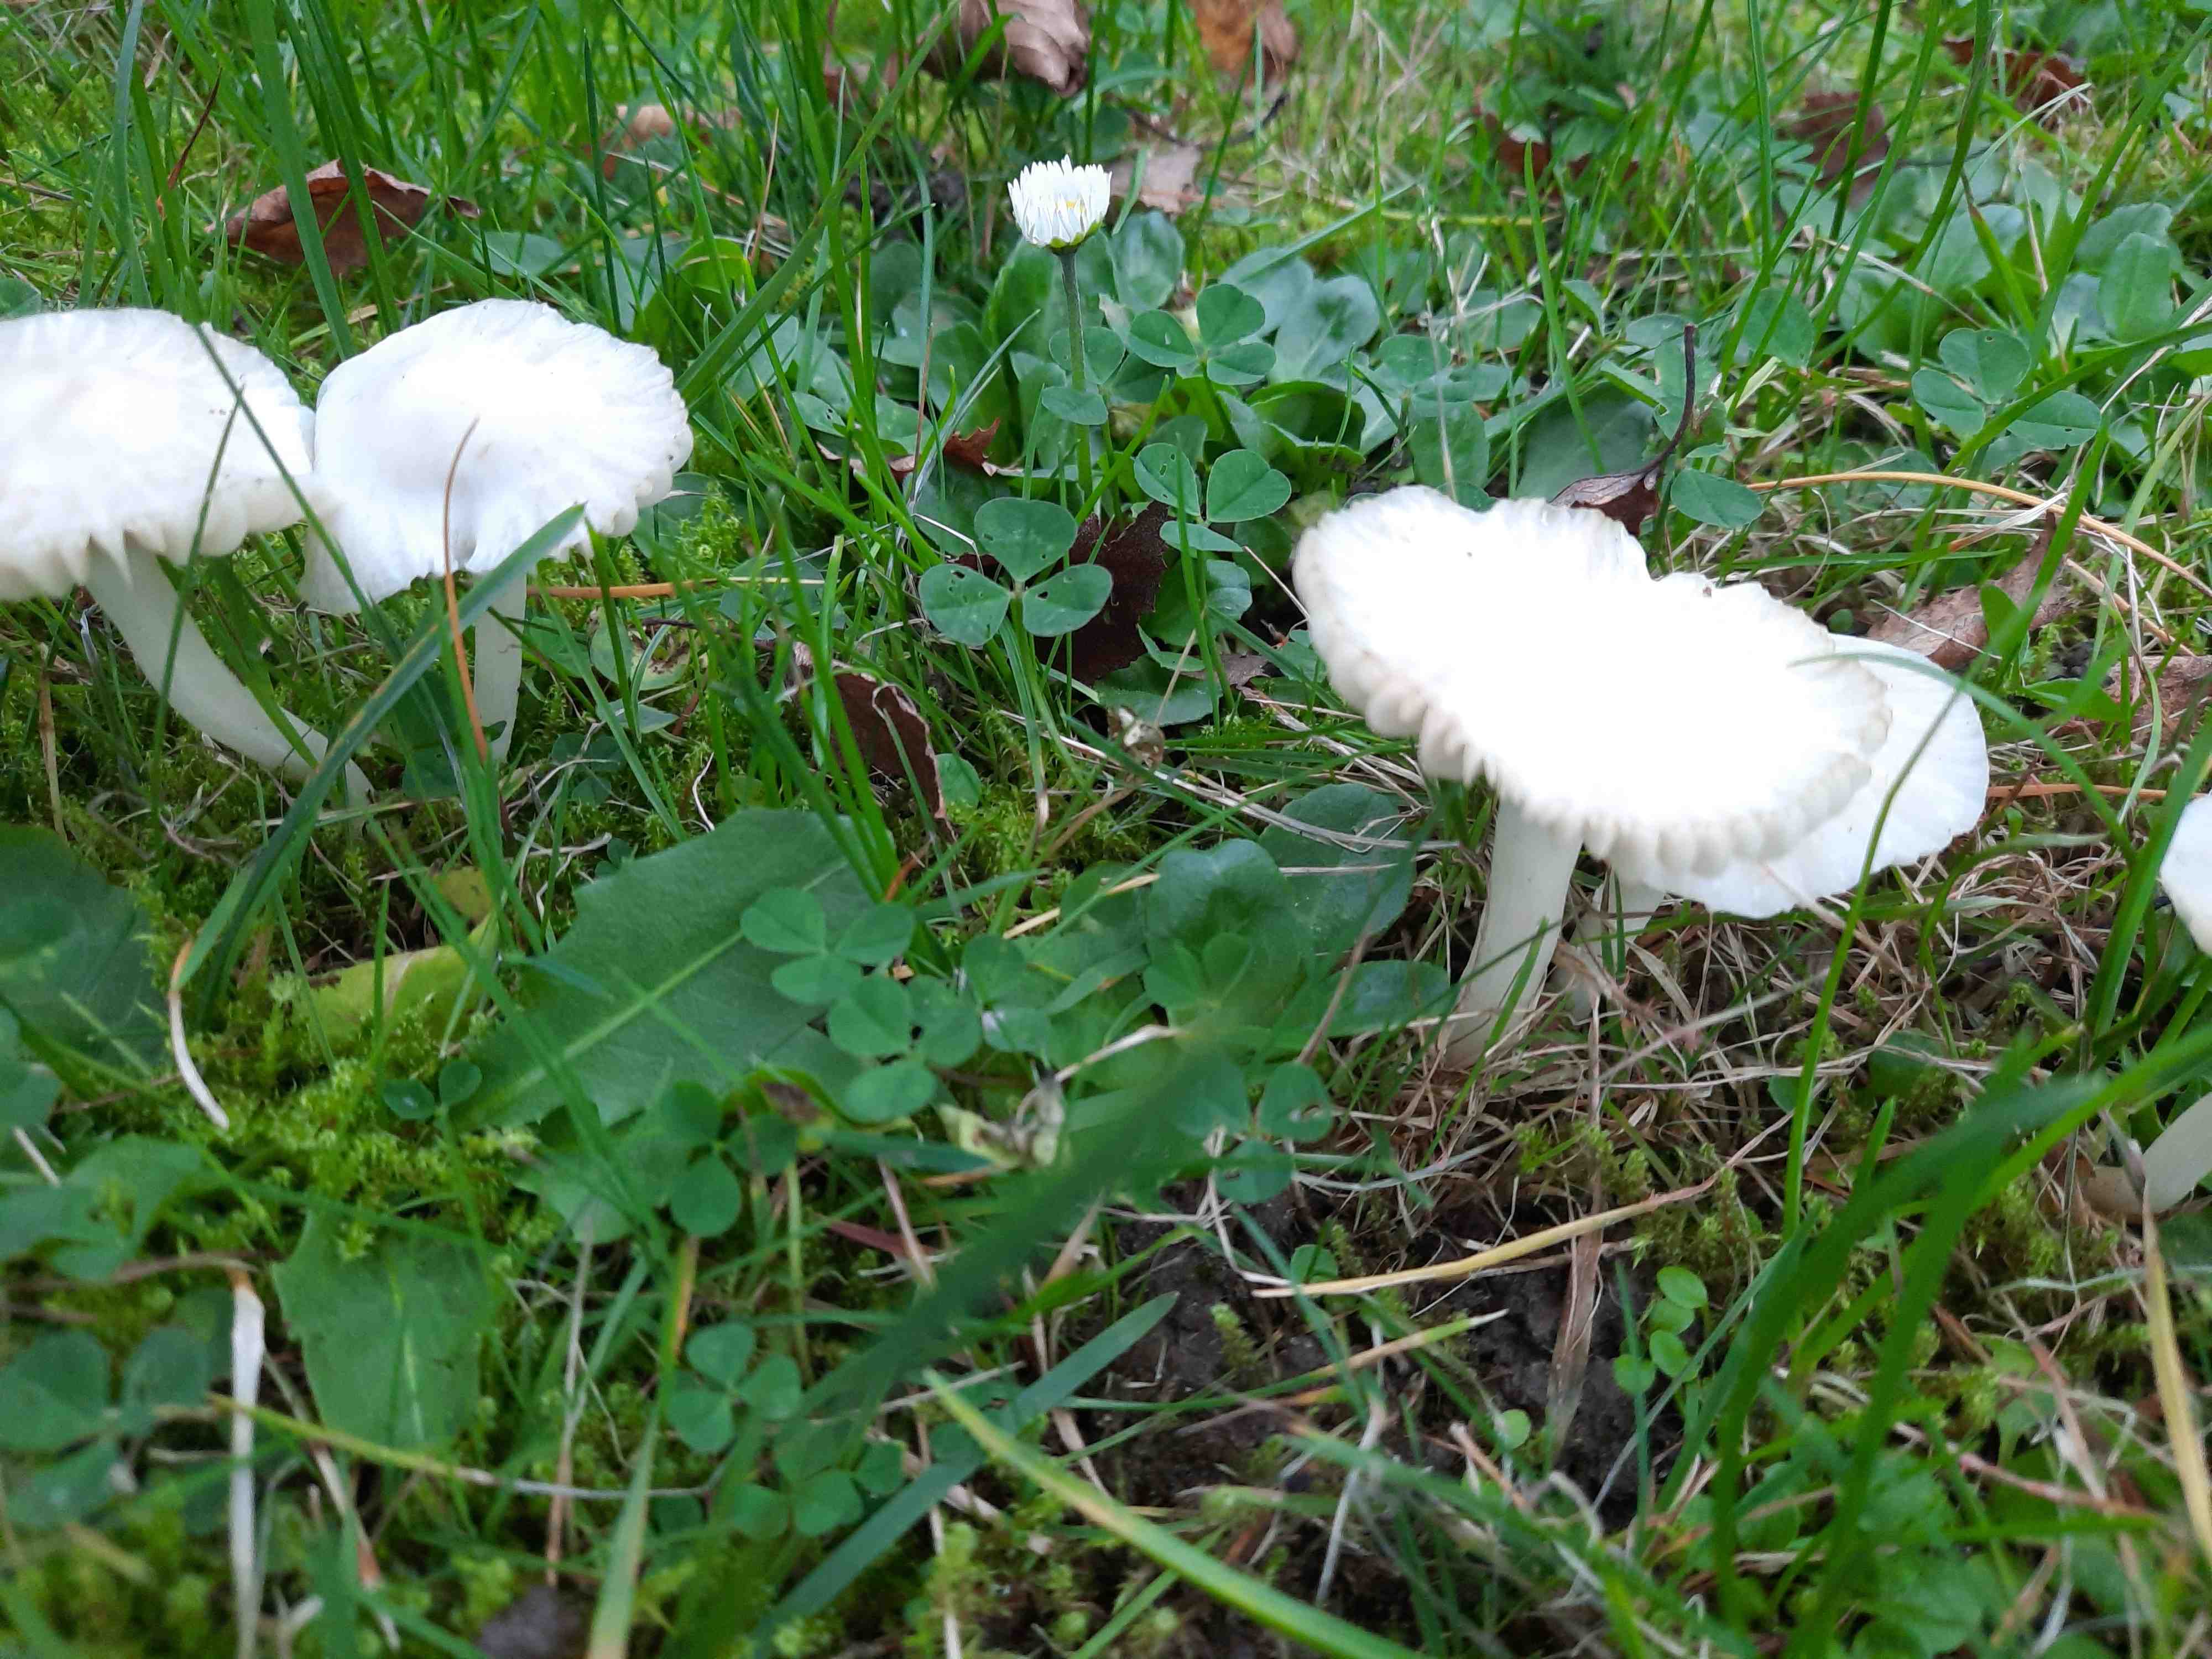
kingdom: Fungi
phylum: Basidiomycota
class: Agaricomycetes
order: Agaricales
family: Hygrophoraceae
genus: Cuphophyllus
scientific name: Cuphophyllus virgineus
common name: snehvid vokshat
